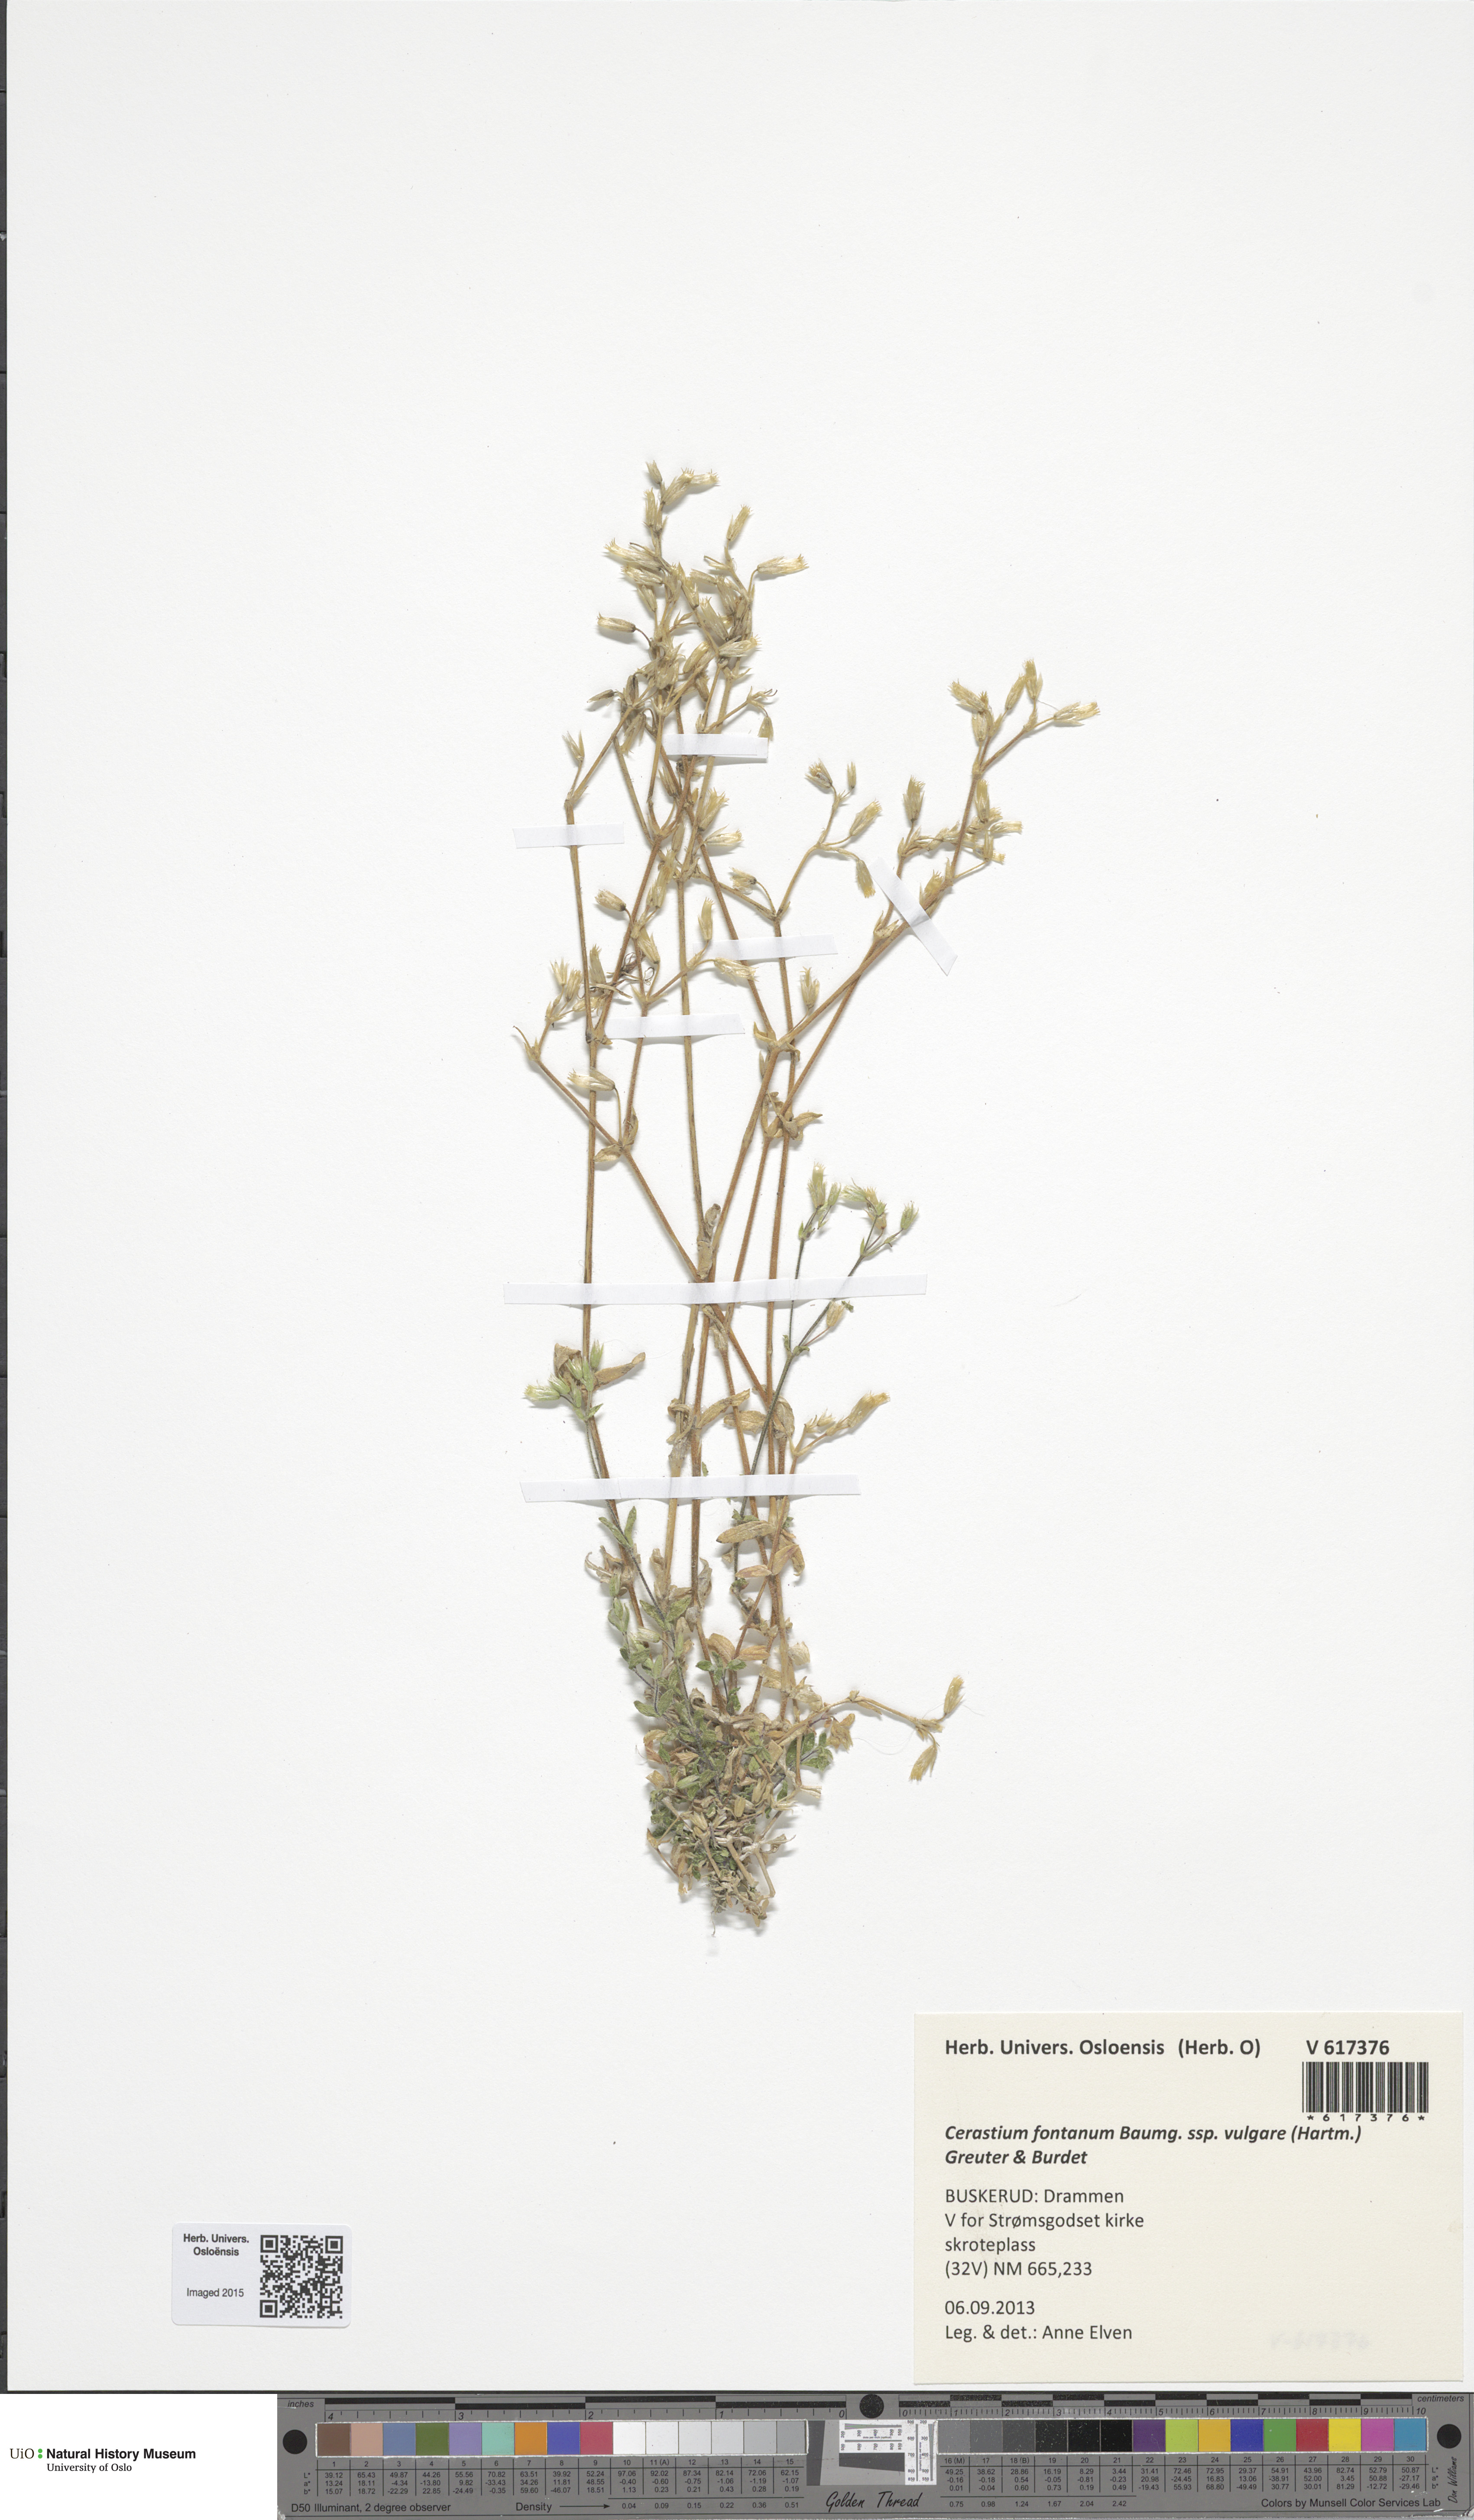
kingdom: Plantae
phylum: Tracheophyta
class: Magnoliopsida
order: Caryophyllales
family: Caryophyllaceae
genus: Cerastium
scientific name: Cerastium holosteoides
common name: Big chickweed
